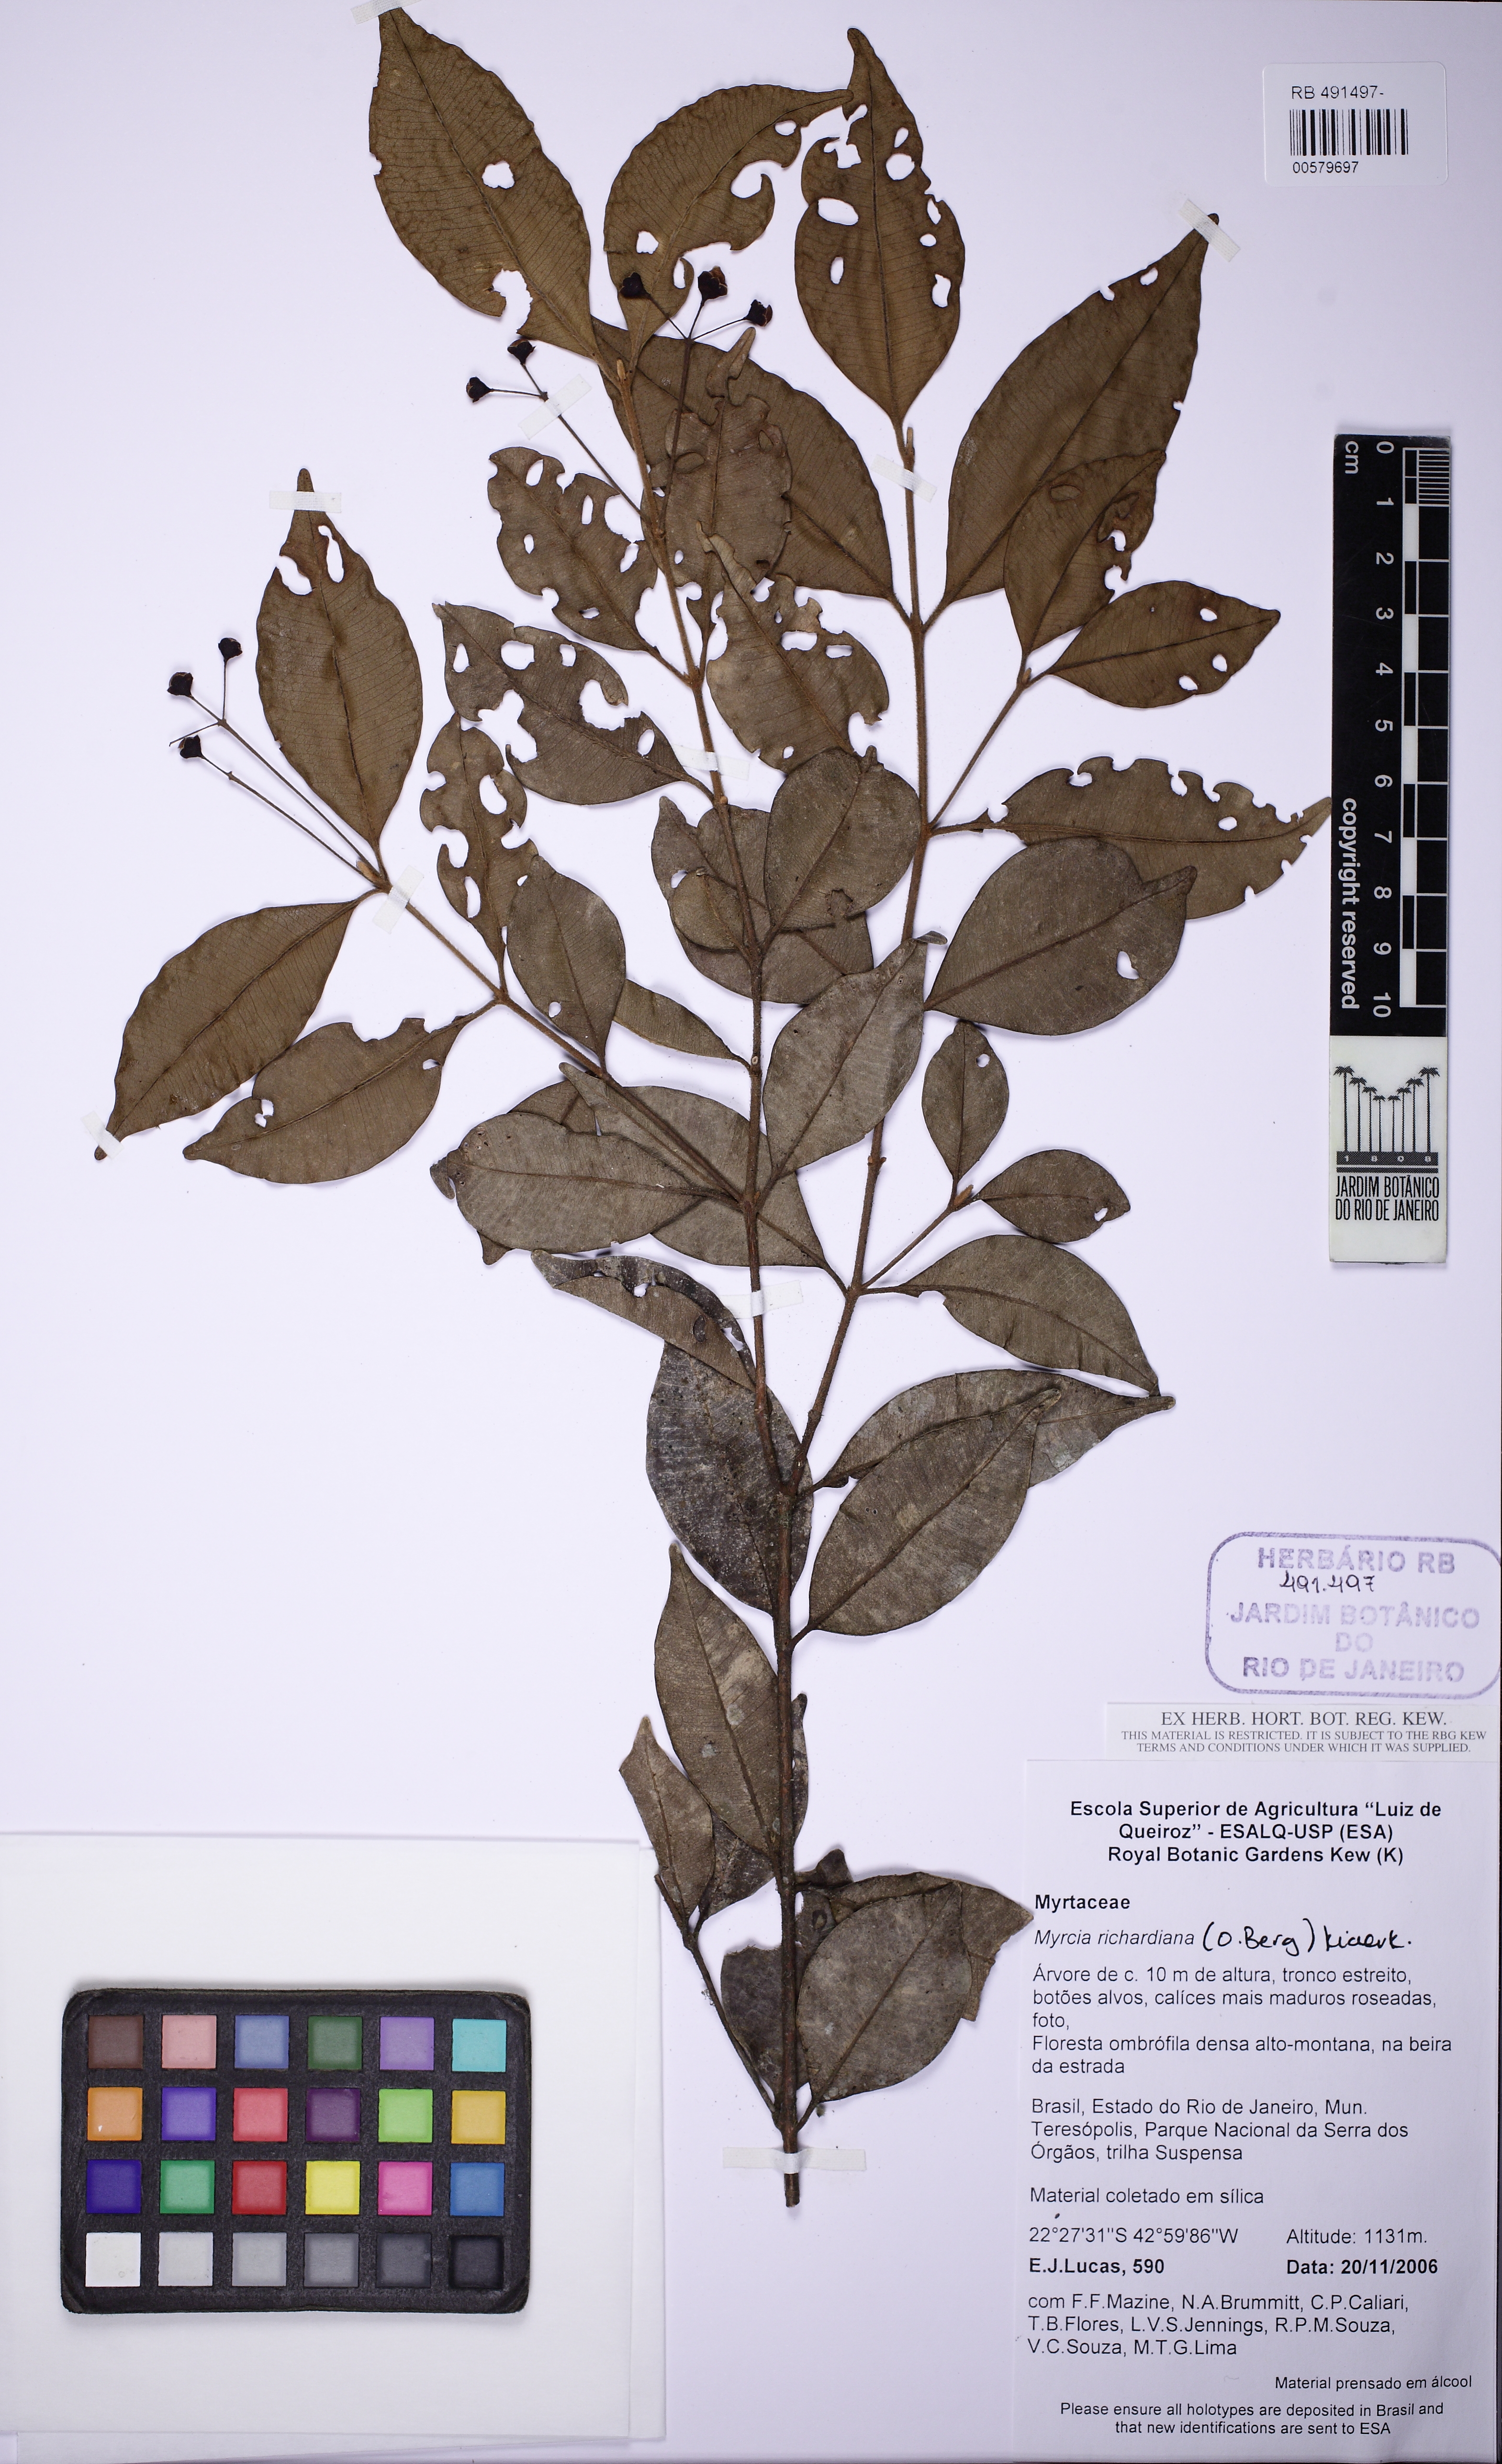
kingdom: Plantae
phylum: Tracheophyta
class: Magnoliopsida
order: Myrtales
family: Myrtaceae
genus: Myrcia
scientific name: Myrcia richardiana
